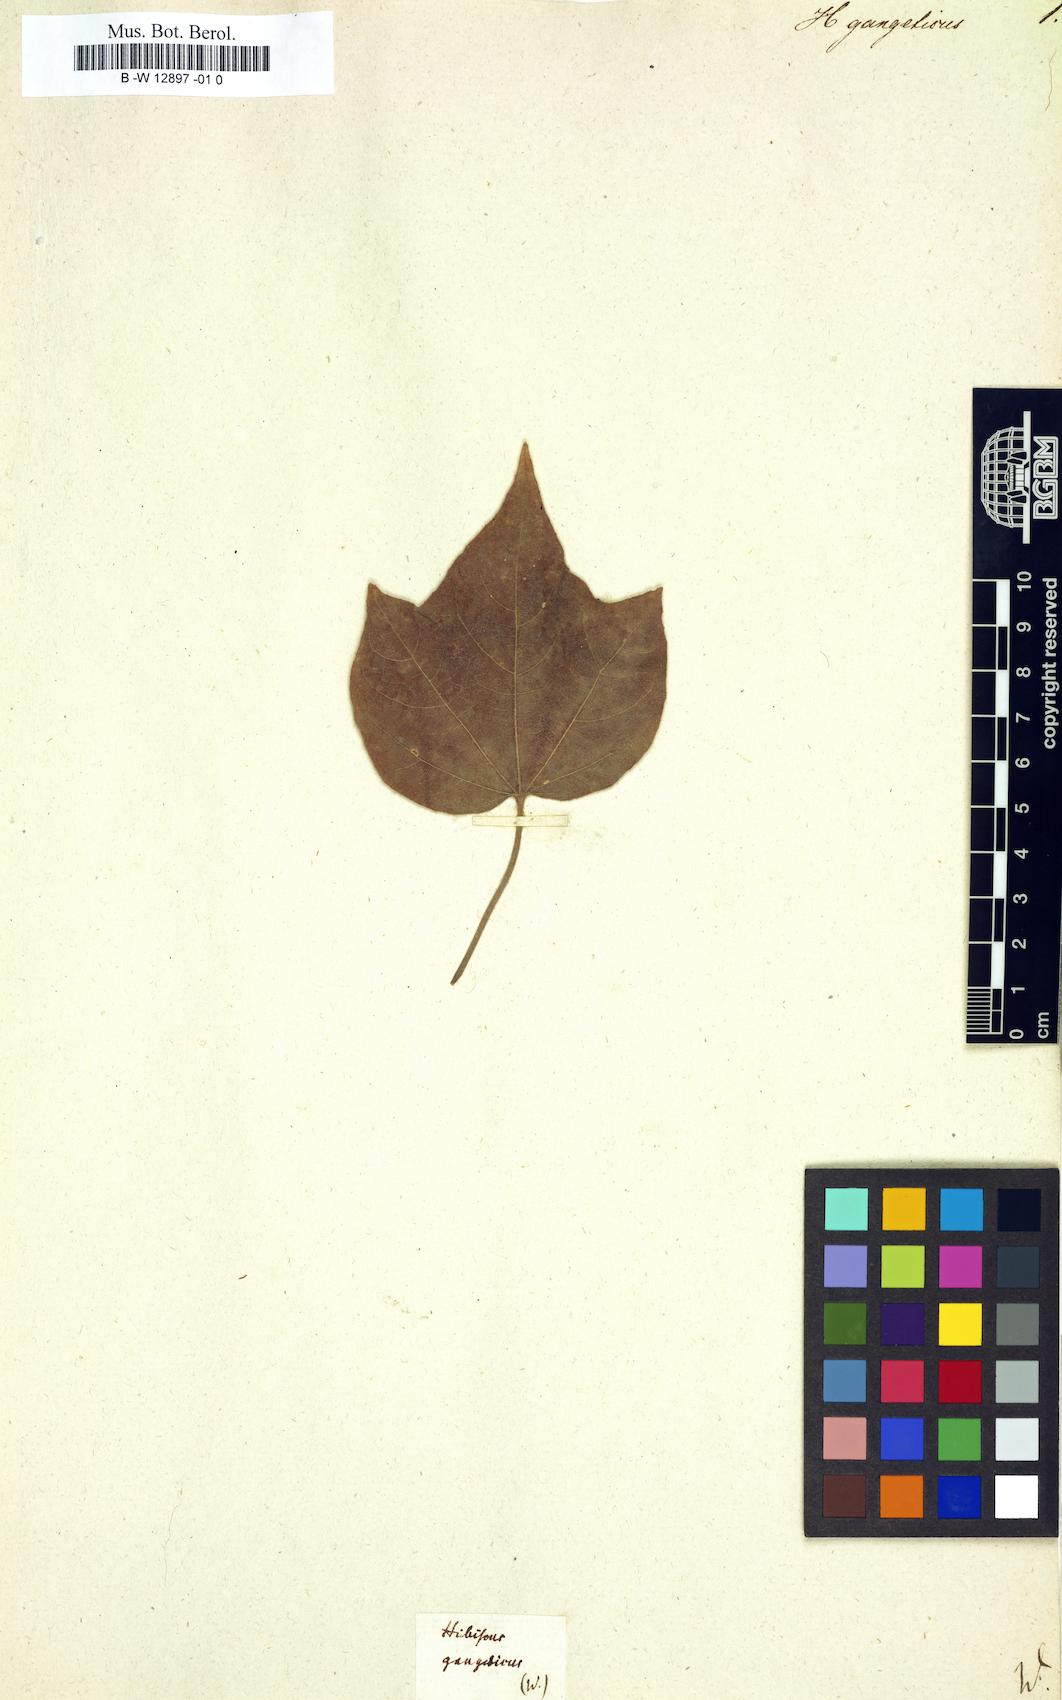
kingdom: Plantae
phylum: Tracheophyta
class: Magnoliopsida
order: Malvales
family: Malvaceae
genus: Thespesia
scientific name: Thespesia lampas
